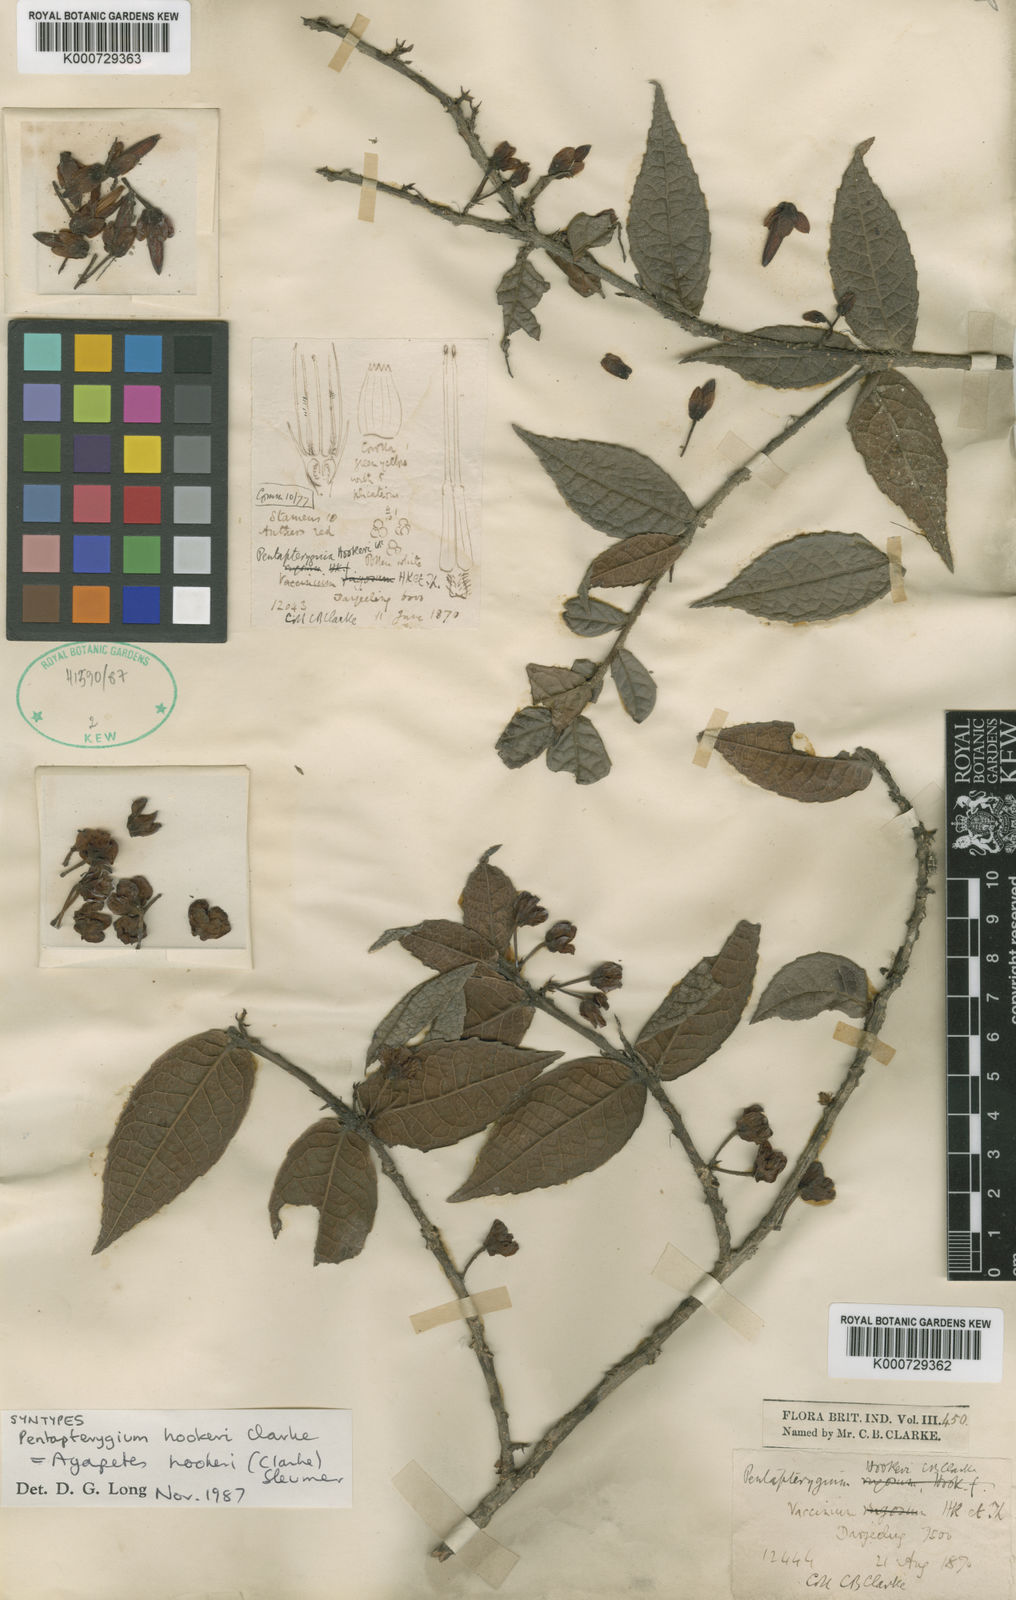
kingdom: Plantae
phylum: Tracheophyta
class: Magnoliopsida
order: Ericales
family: Ericaceae
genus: Agapetes
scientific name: Agapetes incurvata
